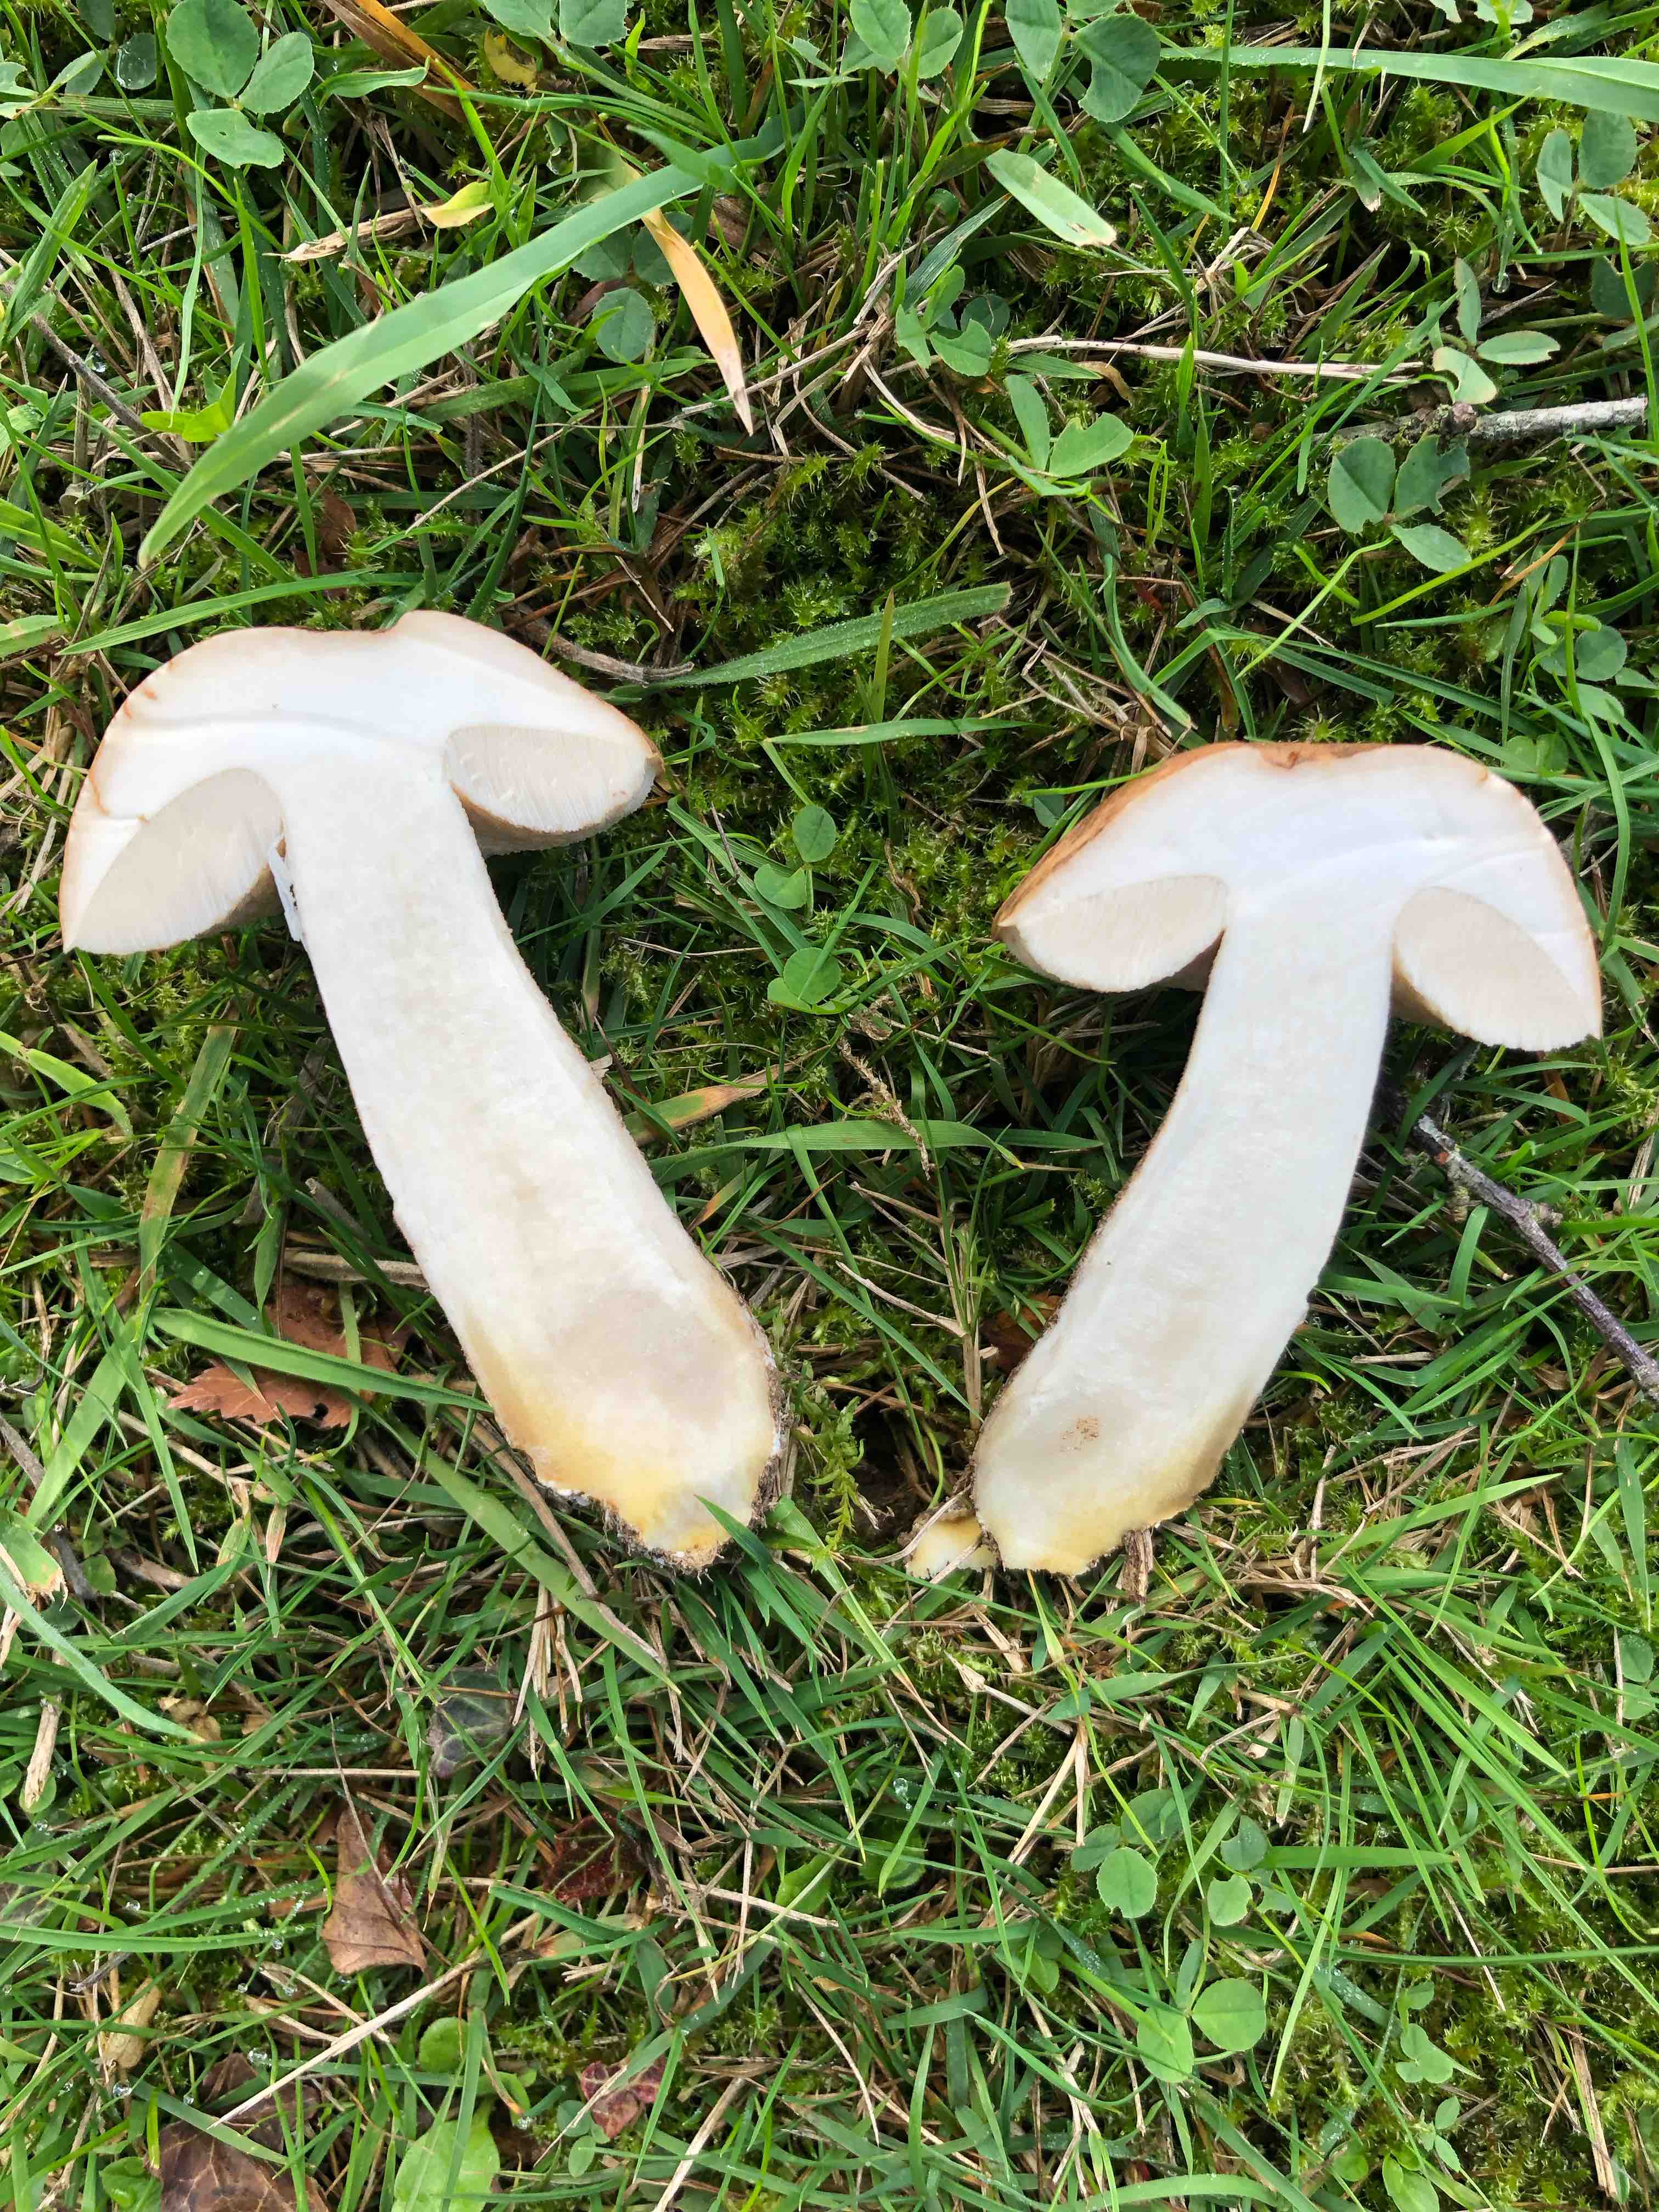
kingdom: Fungi
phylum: Basidiomycota
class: Agaricomycetes
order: Boletales
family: Boletaceae
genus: Leccinum
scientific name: Leccinum scabrum
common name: brun skælrørhat
